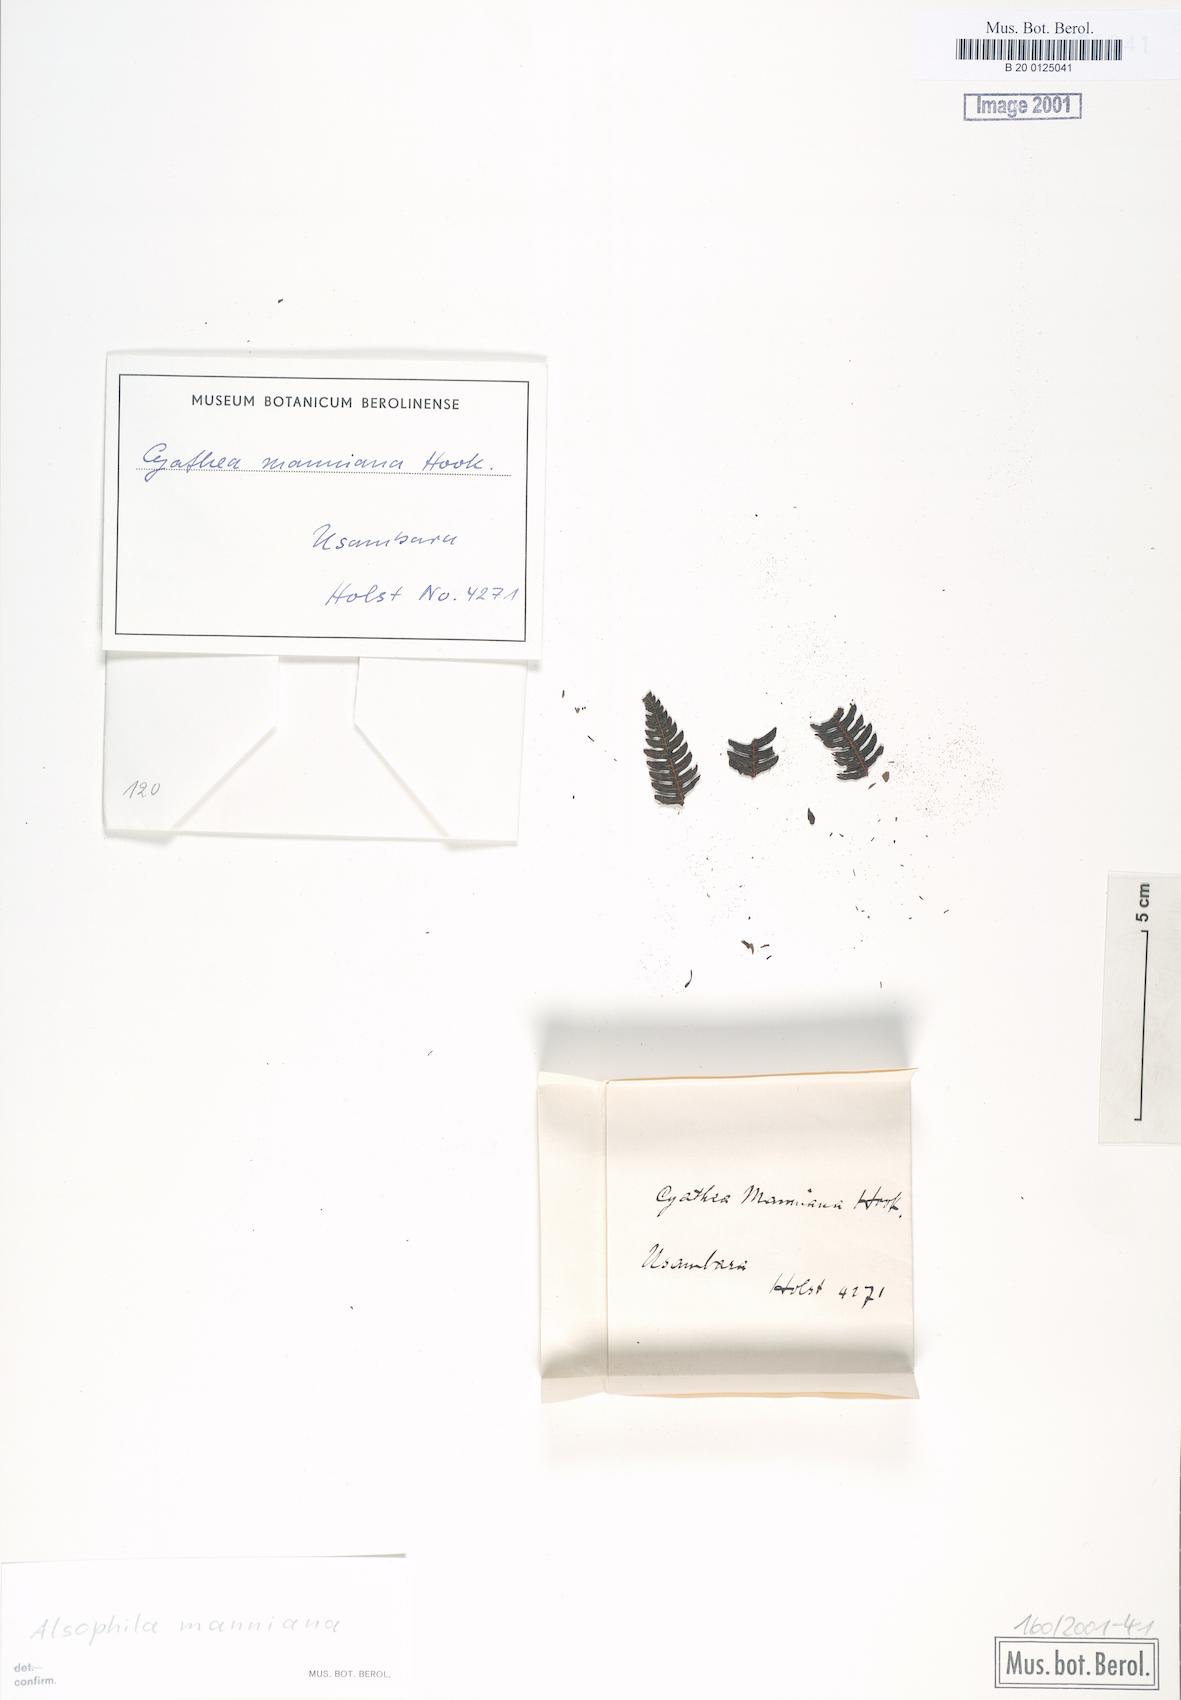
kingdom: Plantae
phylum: Tracheophyta
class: Polypodiopsida
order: Cyatheales
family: Cyatheaceae
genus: Alsophila
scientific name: Alsophila manniana
